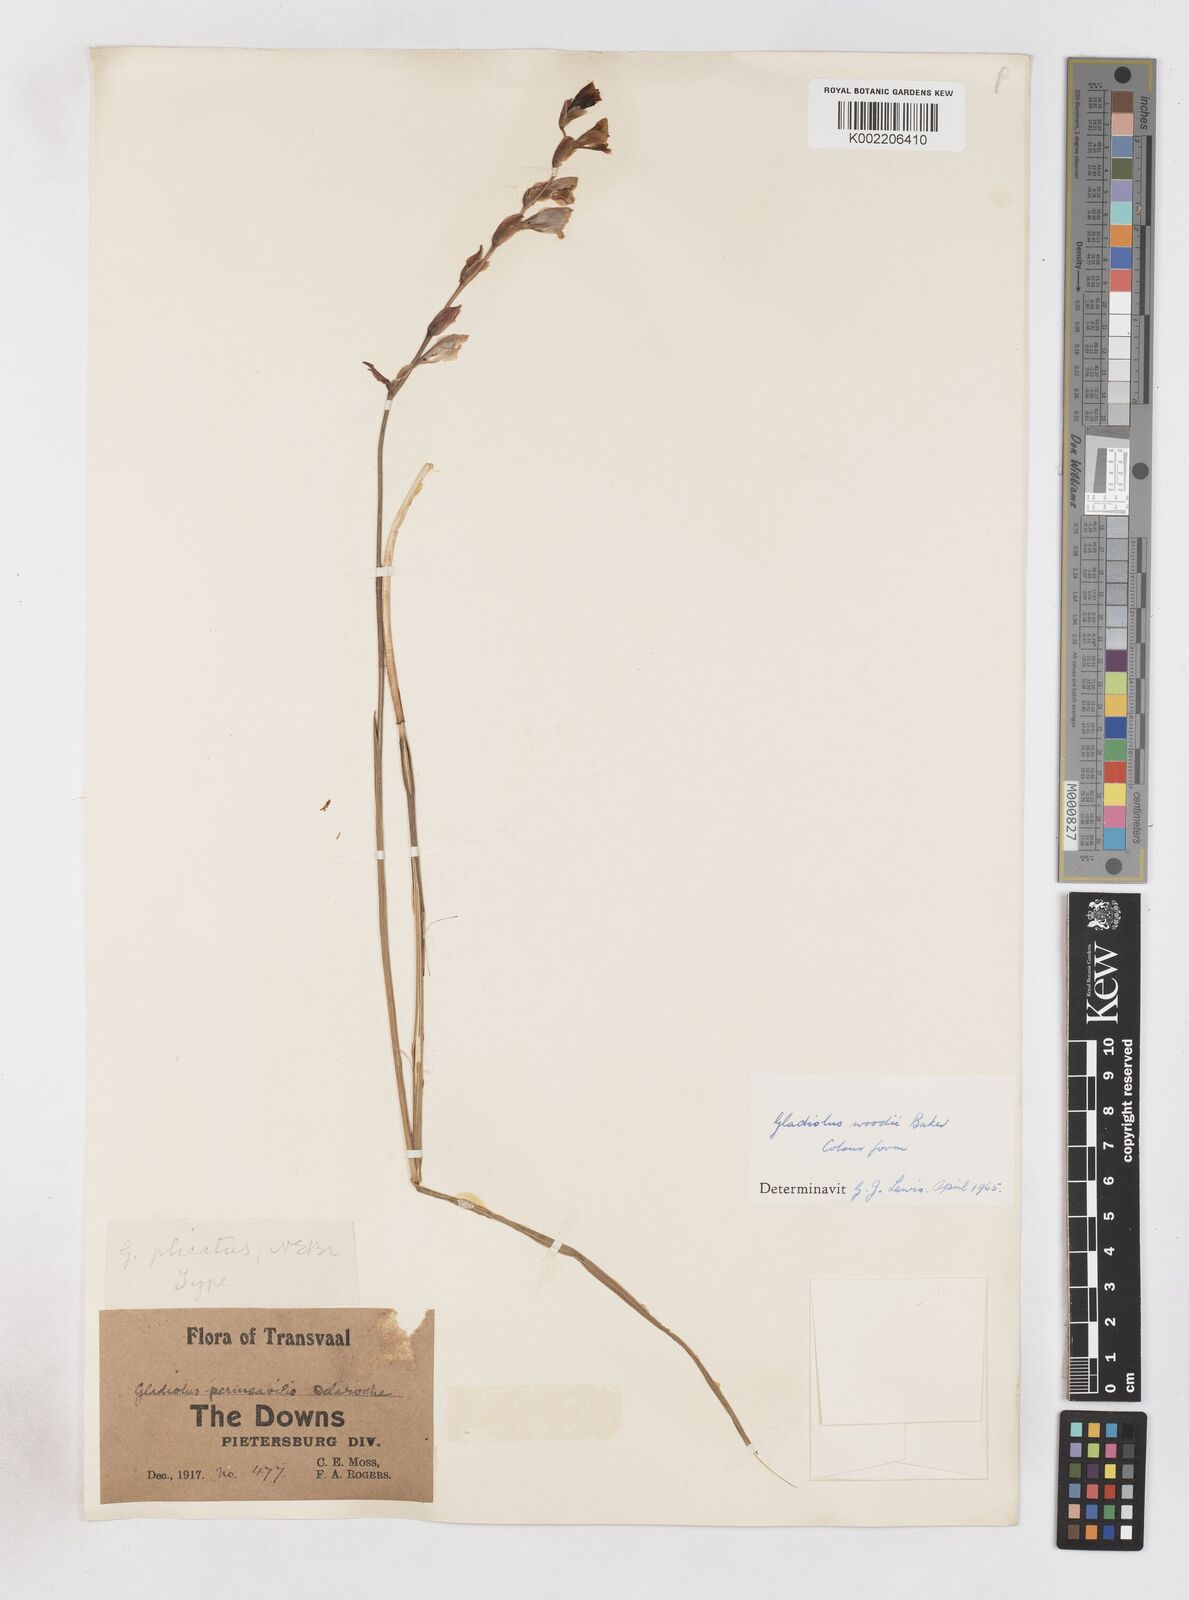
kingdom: Plantae
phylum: Tracheophyta
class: Liliopsida
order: Asparagales
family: Iridaceae
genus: Gladiolus
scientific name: Gladiolus woodii
